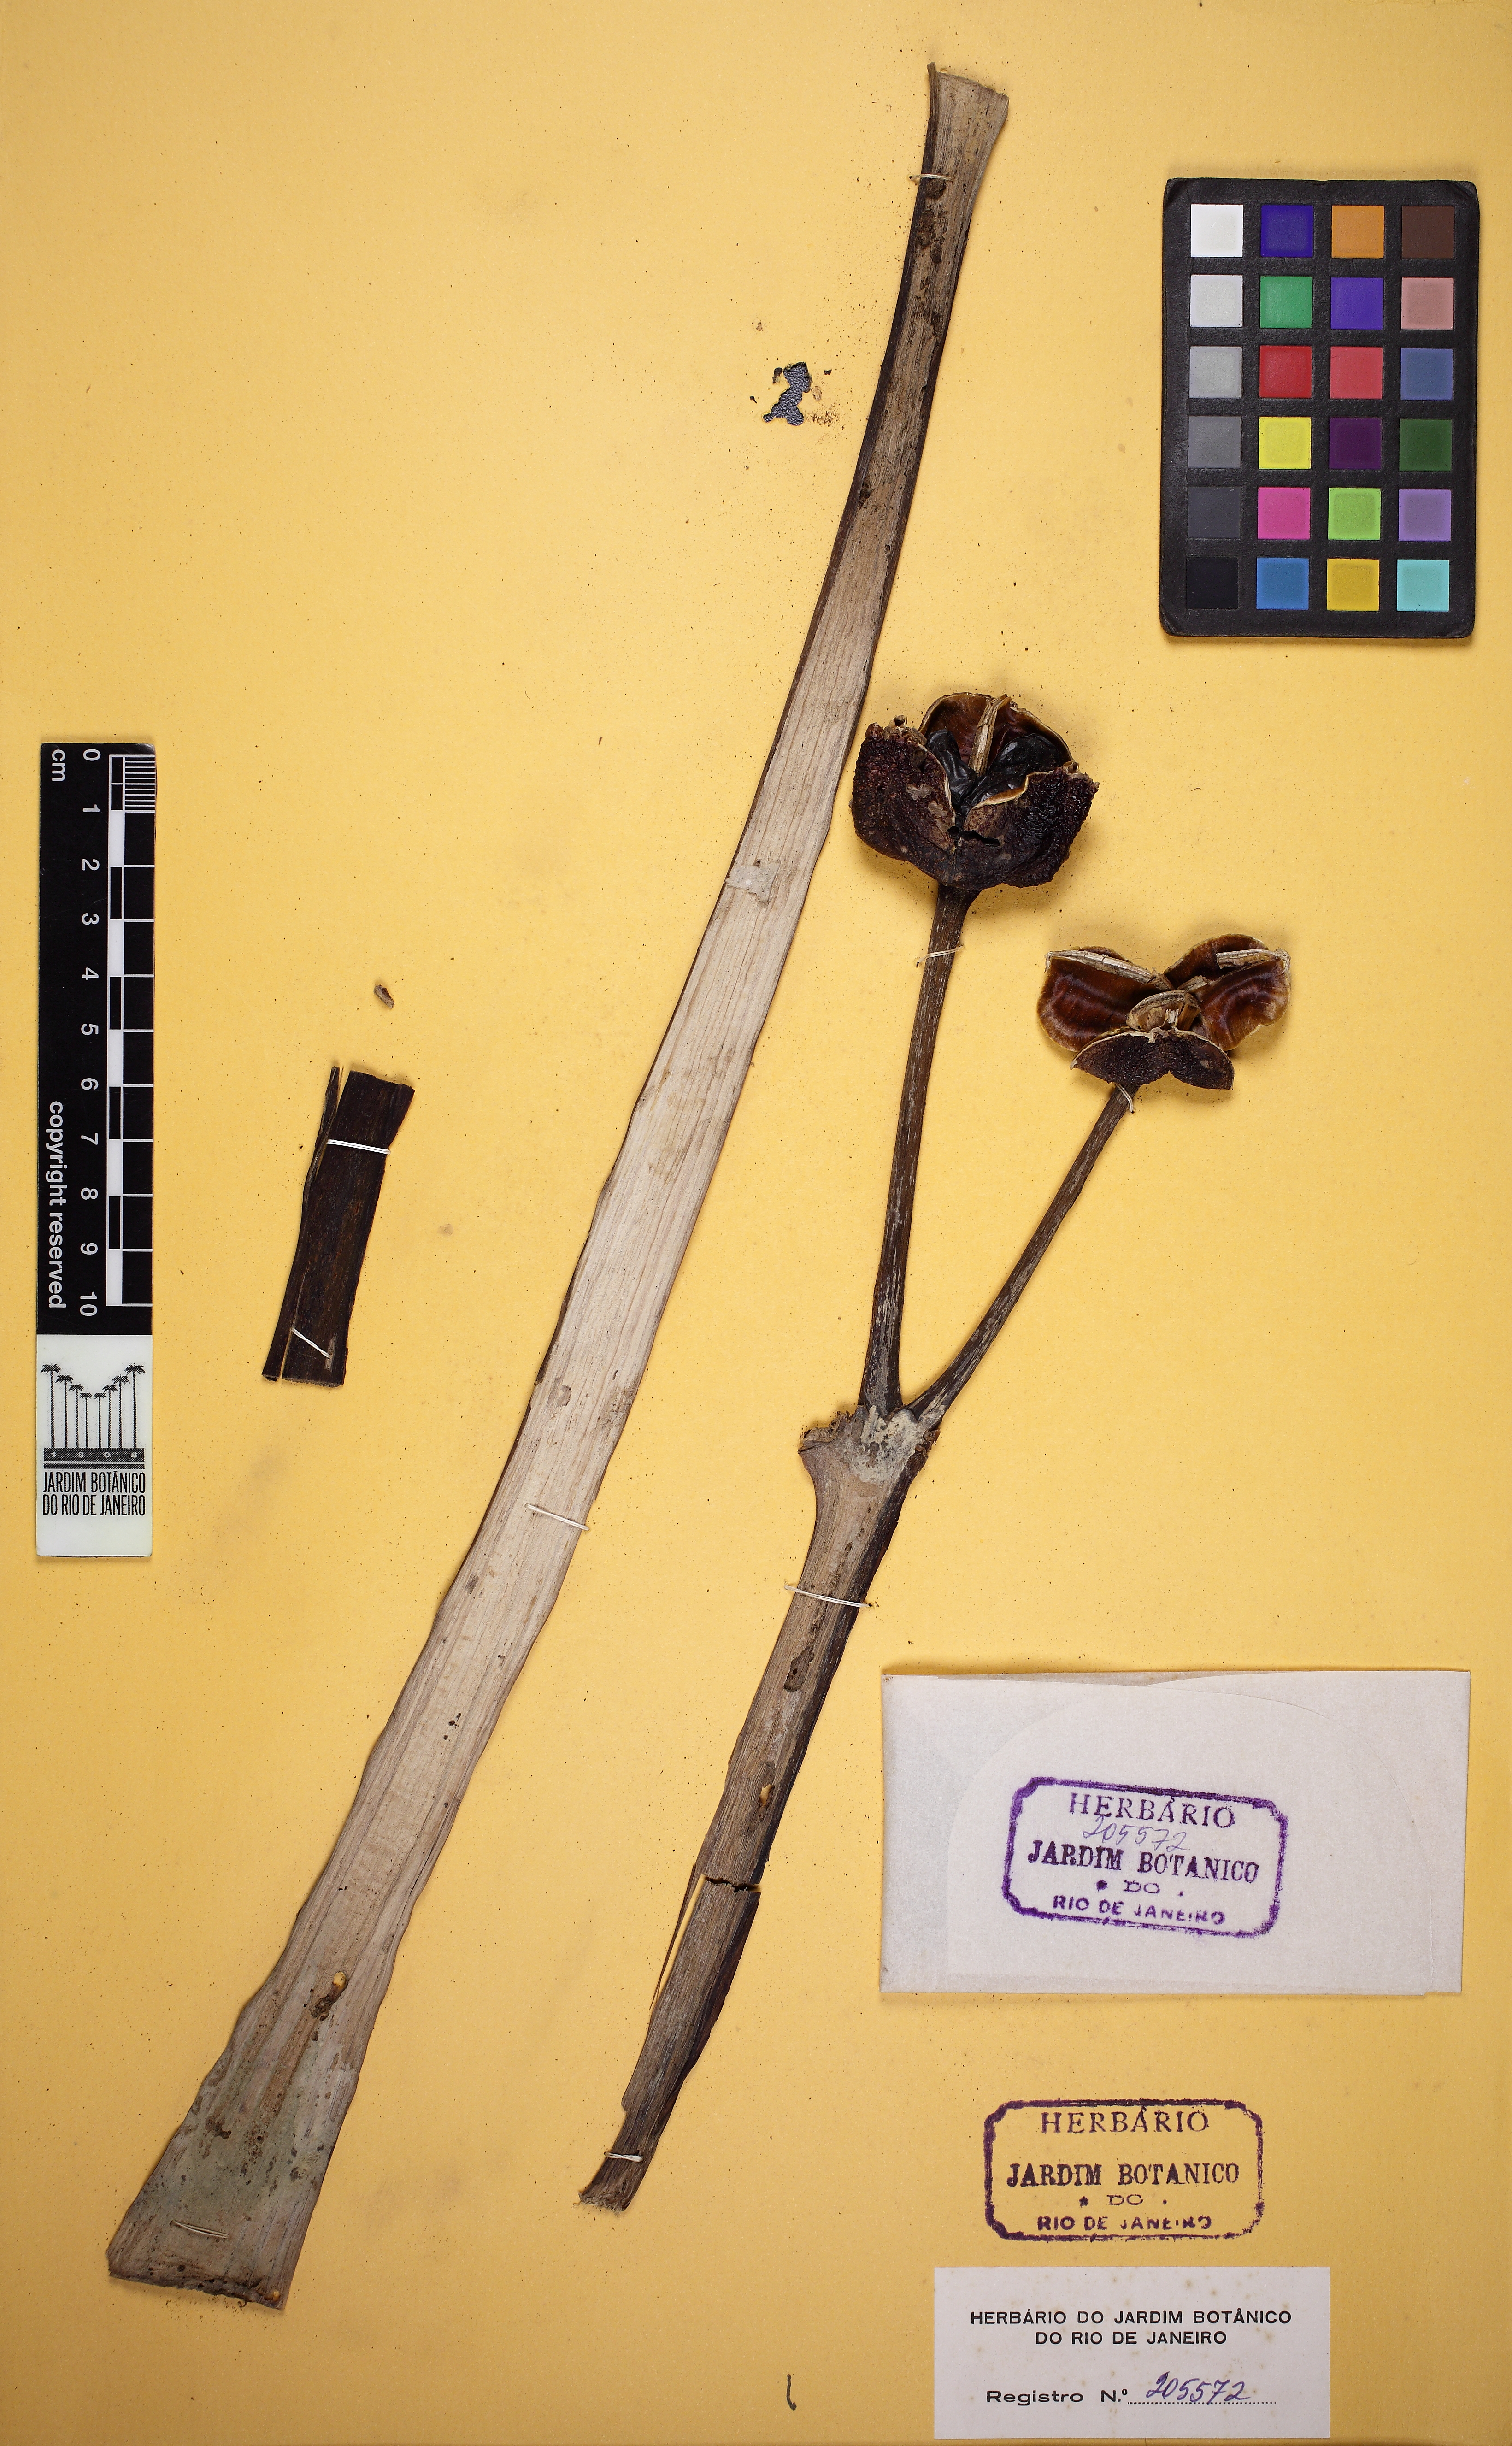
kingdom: Plantae
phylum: Tracheophyta
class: Liliopsida
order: Asparagales
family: Amaryllidaceae
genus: Worsleya
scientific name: Worsleya procera
